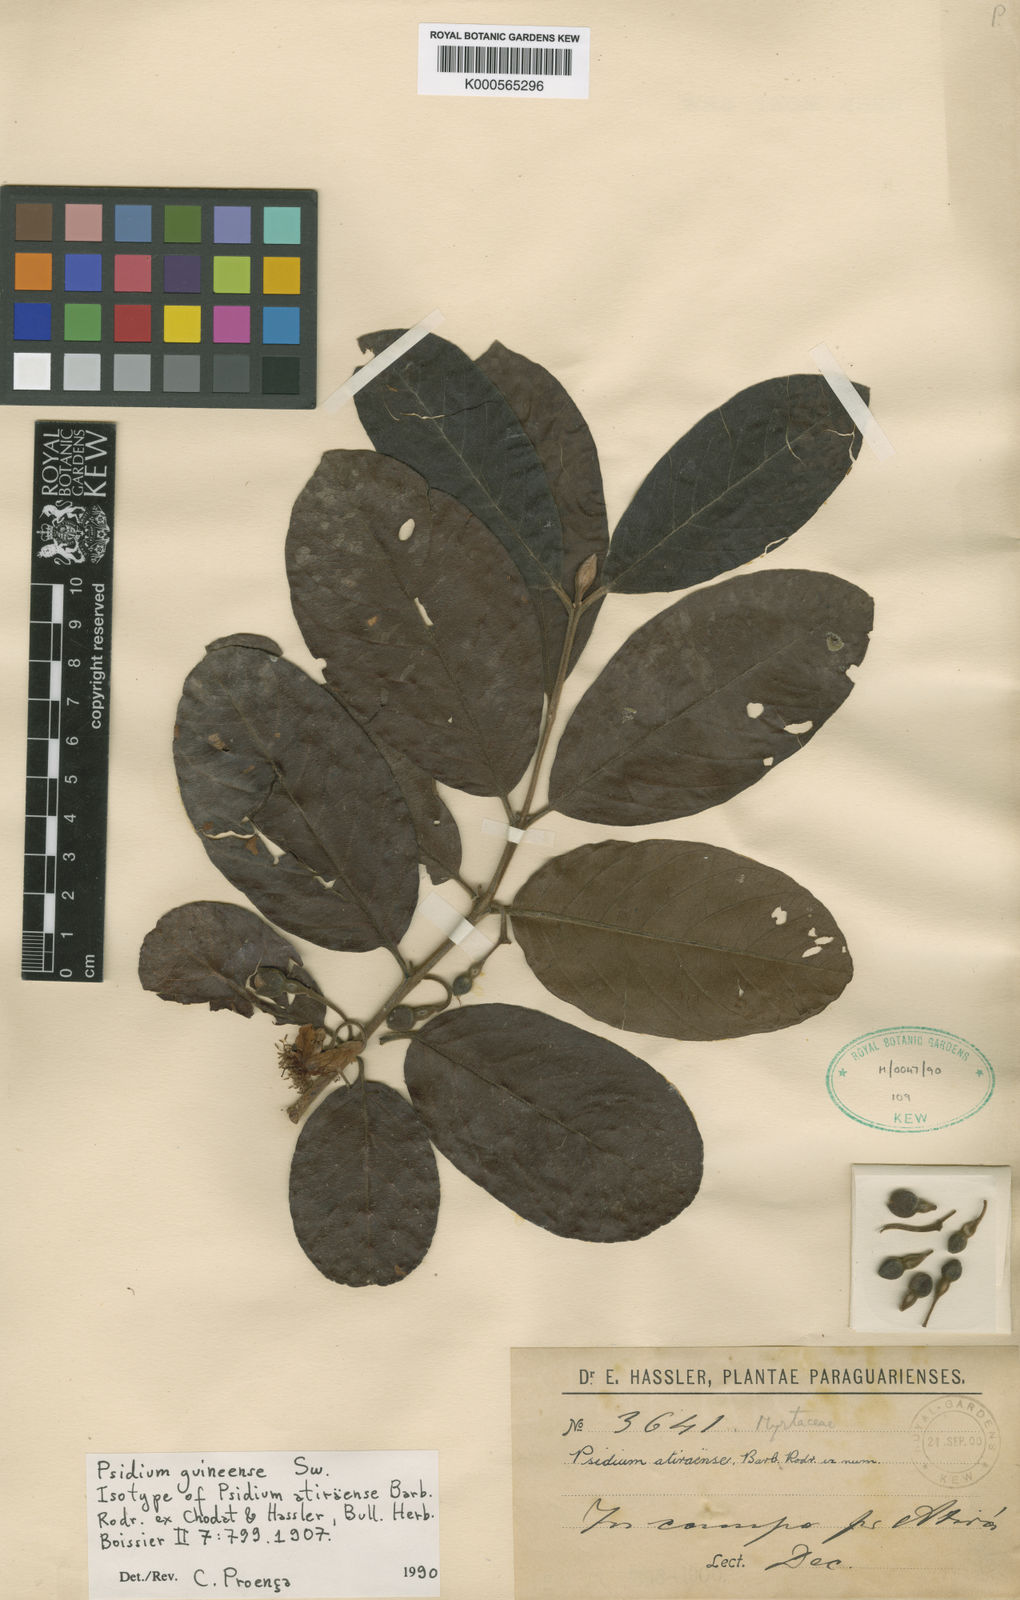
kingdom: Plantae
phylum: Tracheophyta
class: Magnoliopsida
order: Myrtales
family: Myrtaceae
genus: Psidium
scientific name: Psidium guineense
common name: Brazilian guava
